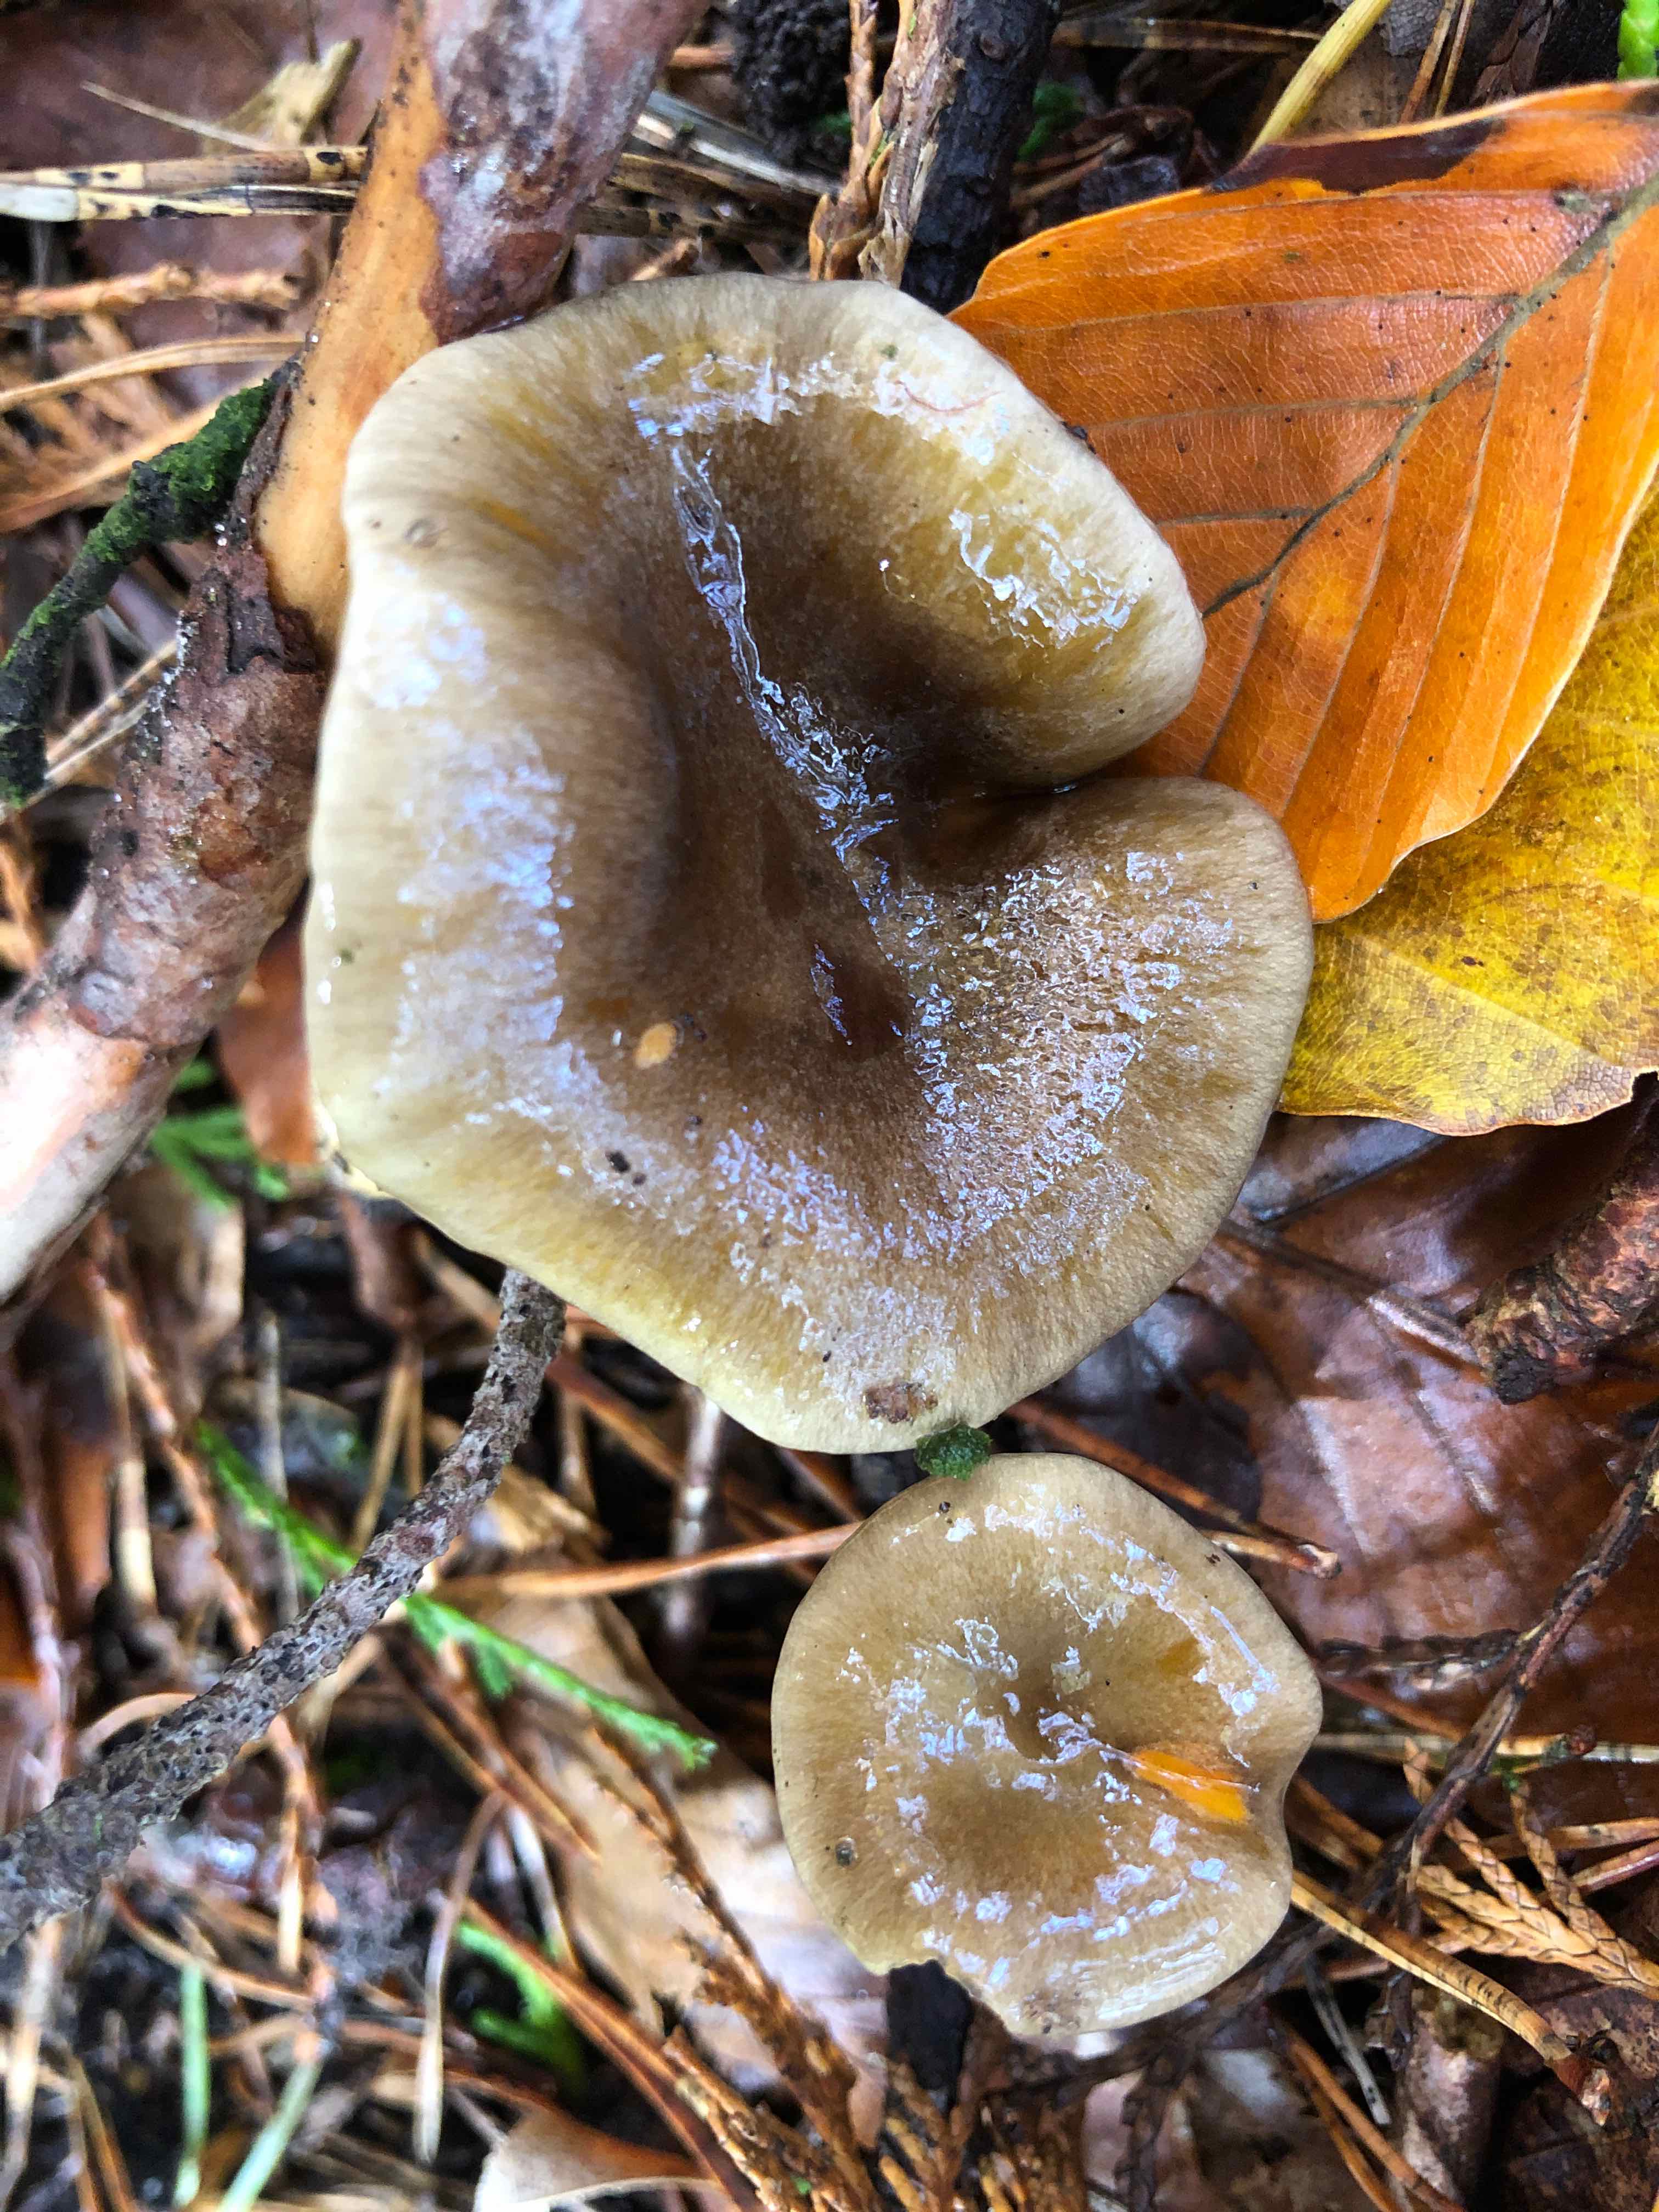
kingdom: Fungi
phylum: Basidiomycota
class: Agaricomycetes
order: Agaricales
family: Hygrophoraceae
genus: Hygrophorus
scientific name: Hygrophorus hypothejus
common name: frost-sneglehat
